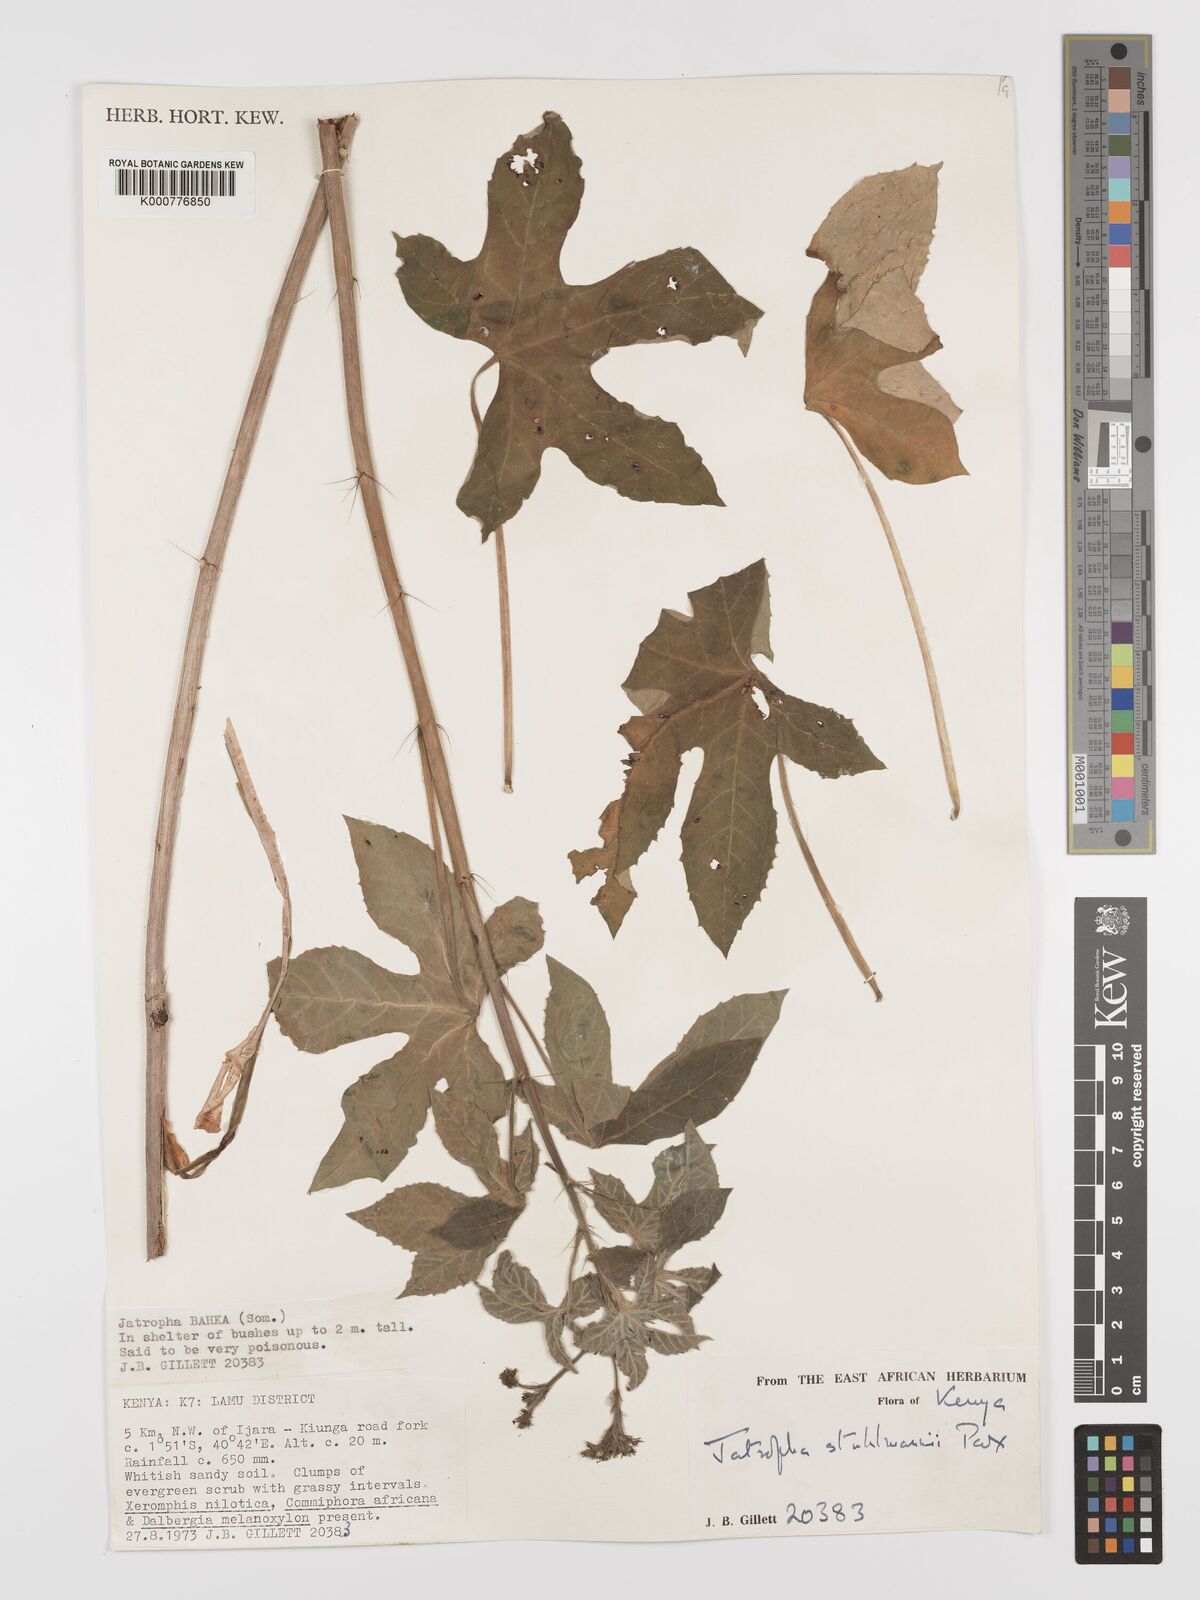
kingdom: Plantae
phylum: Tracheophyta
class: Magnoliopsida
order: Malpighiales
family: Euphorbiaceae
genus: Jatropha
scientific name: Jatropha stuhlmannii
